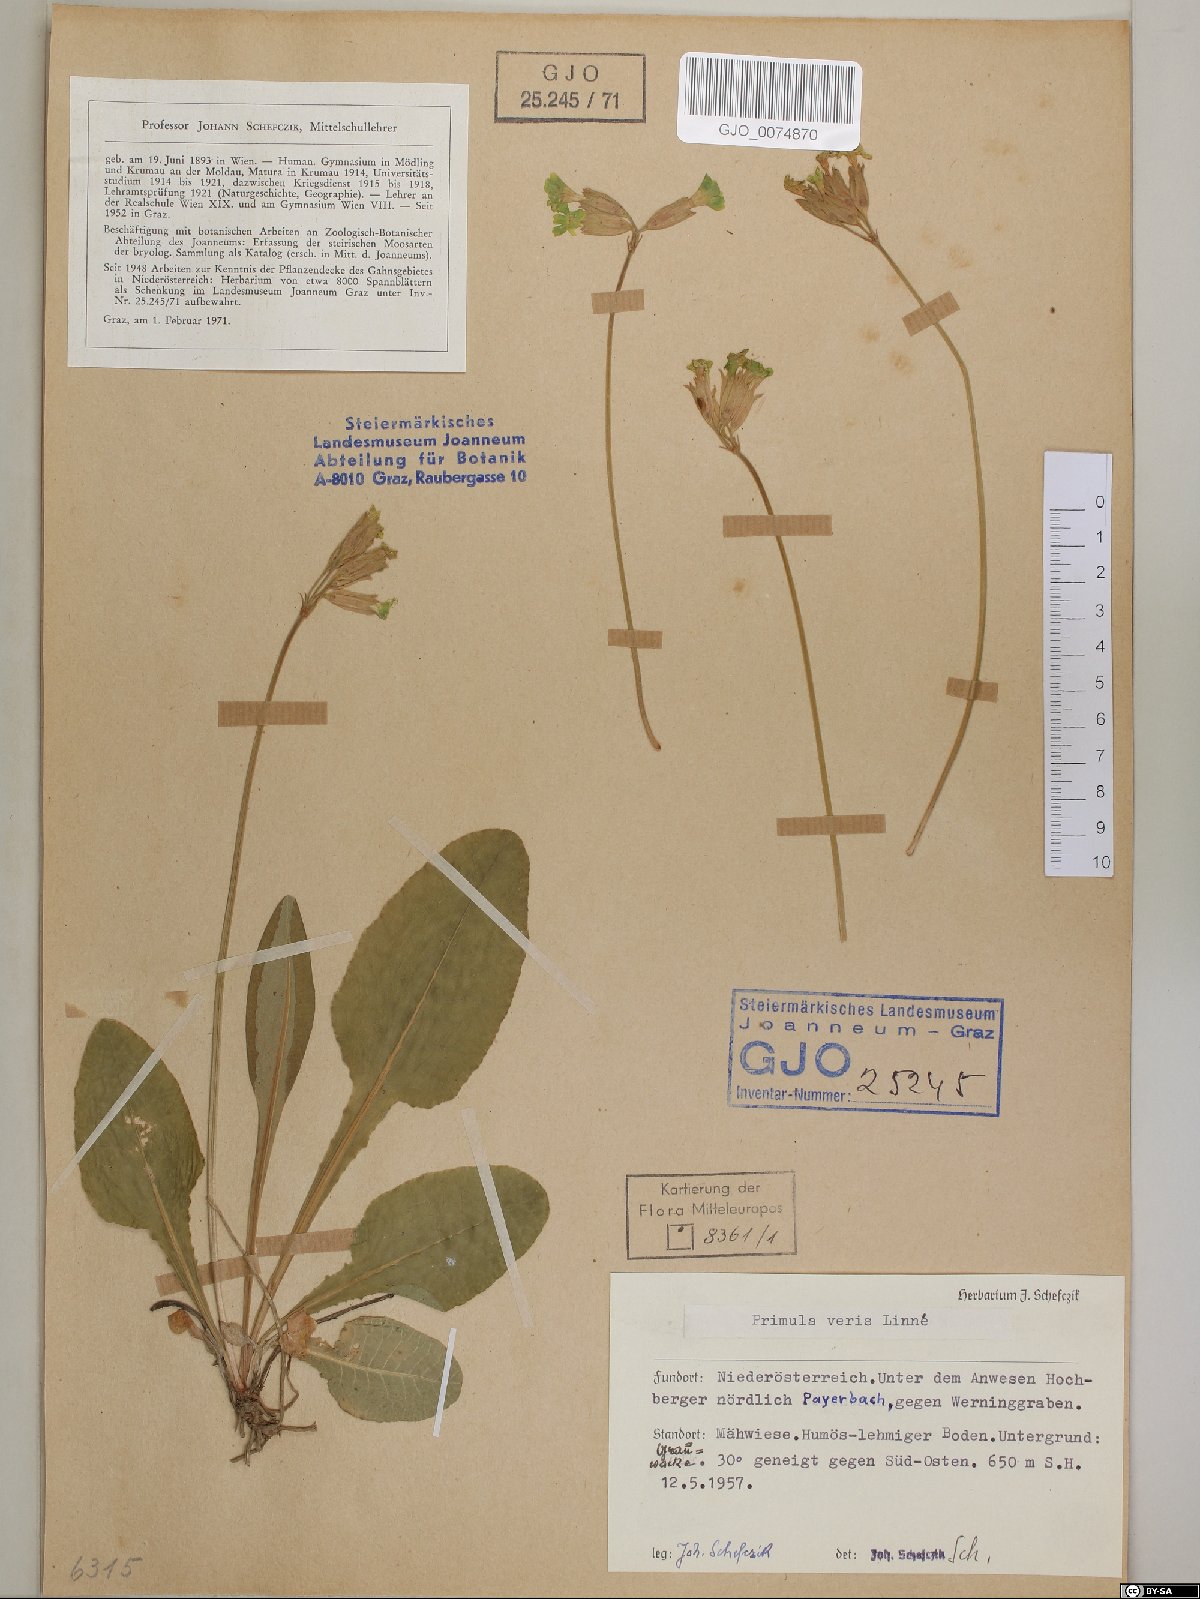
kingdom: Plantae
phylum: Tracheophyta
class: Magnoliopsida
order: Ericales
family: Primulaceae
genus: Primula
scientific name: Primula veris
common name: Cowslip
